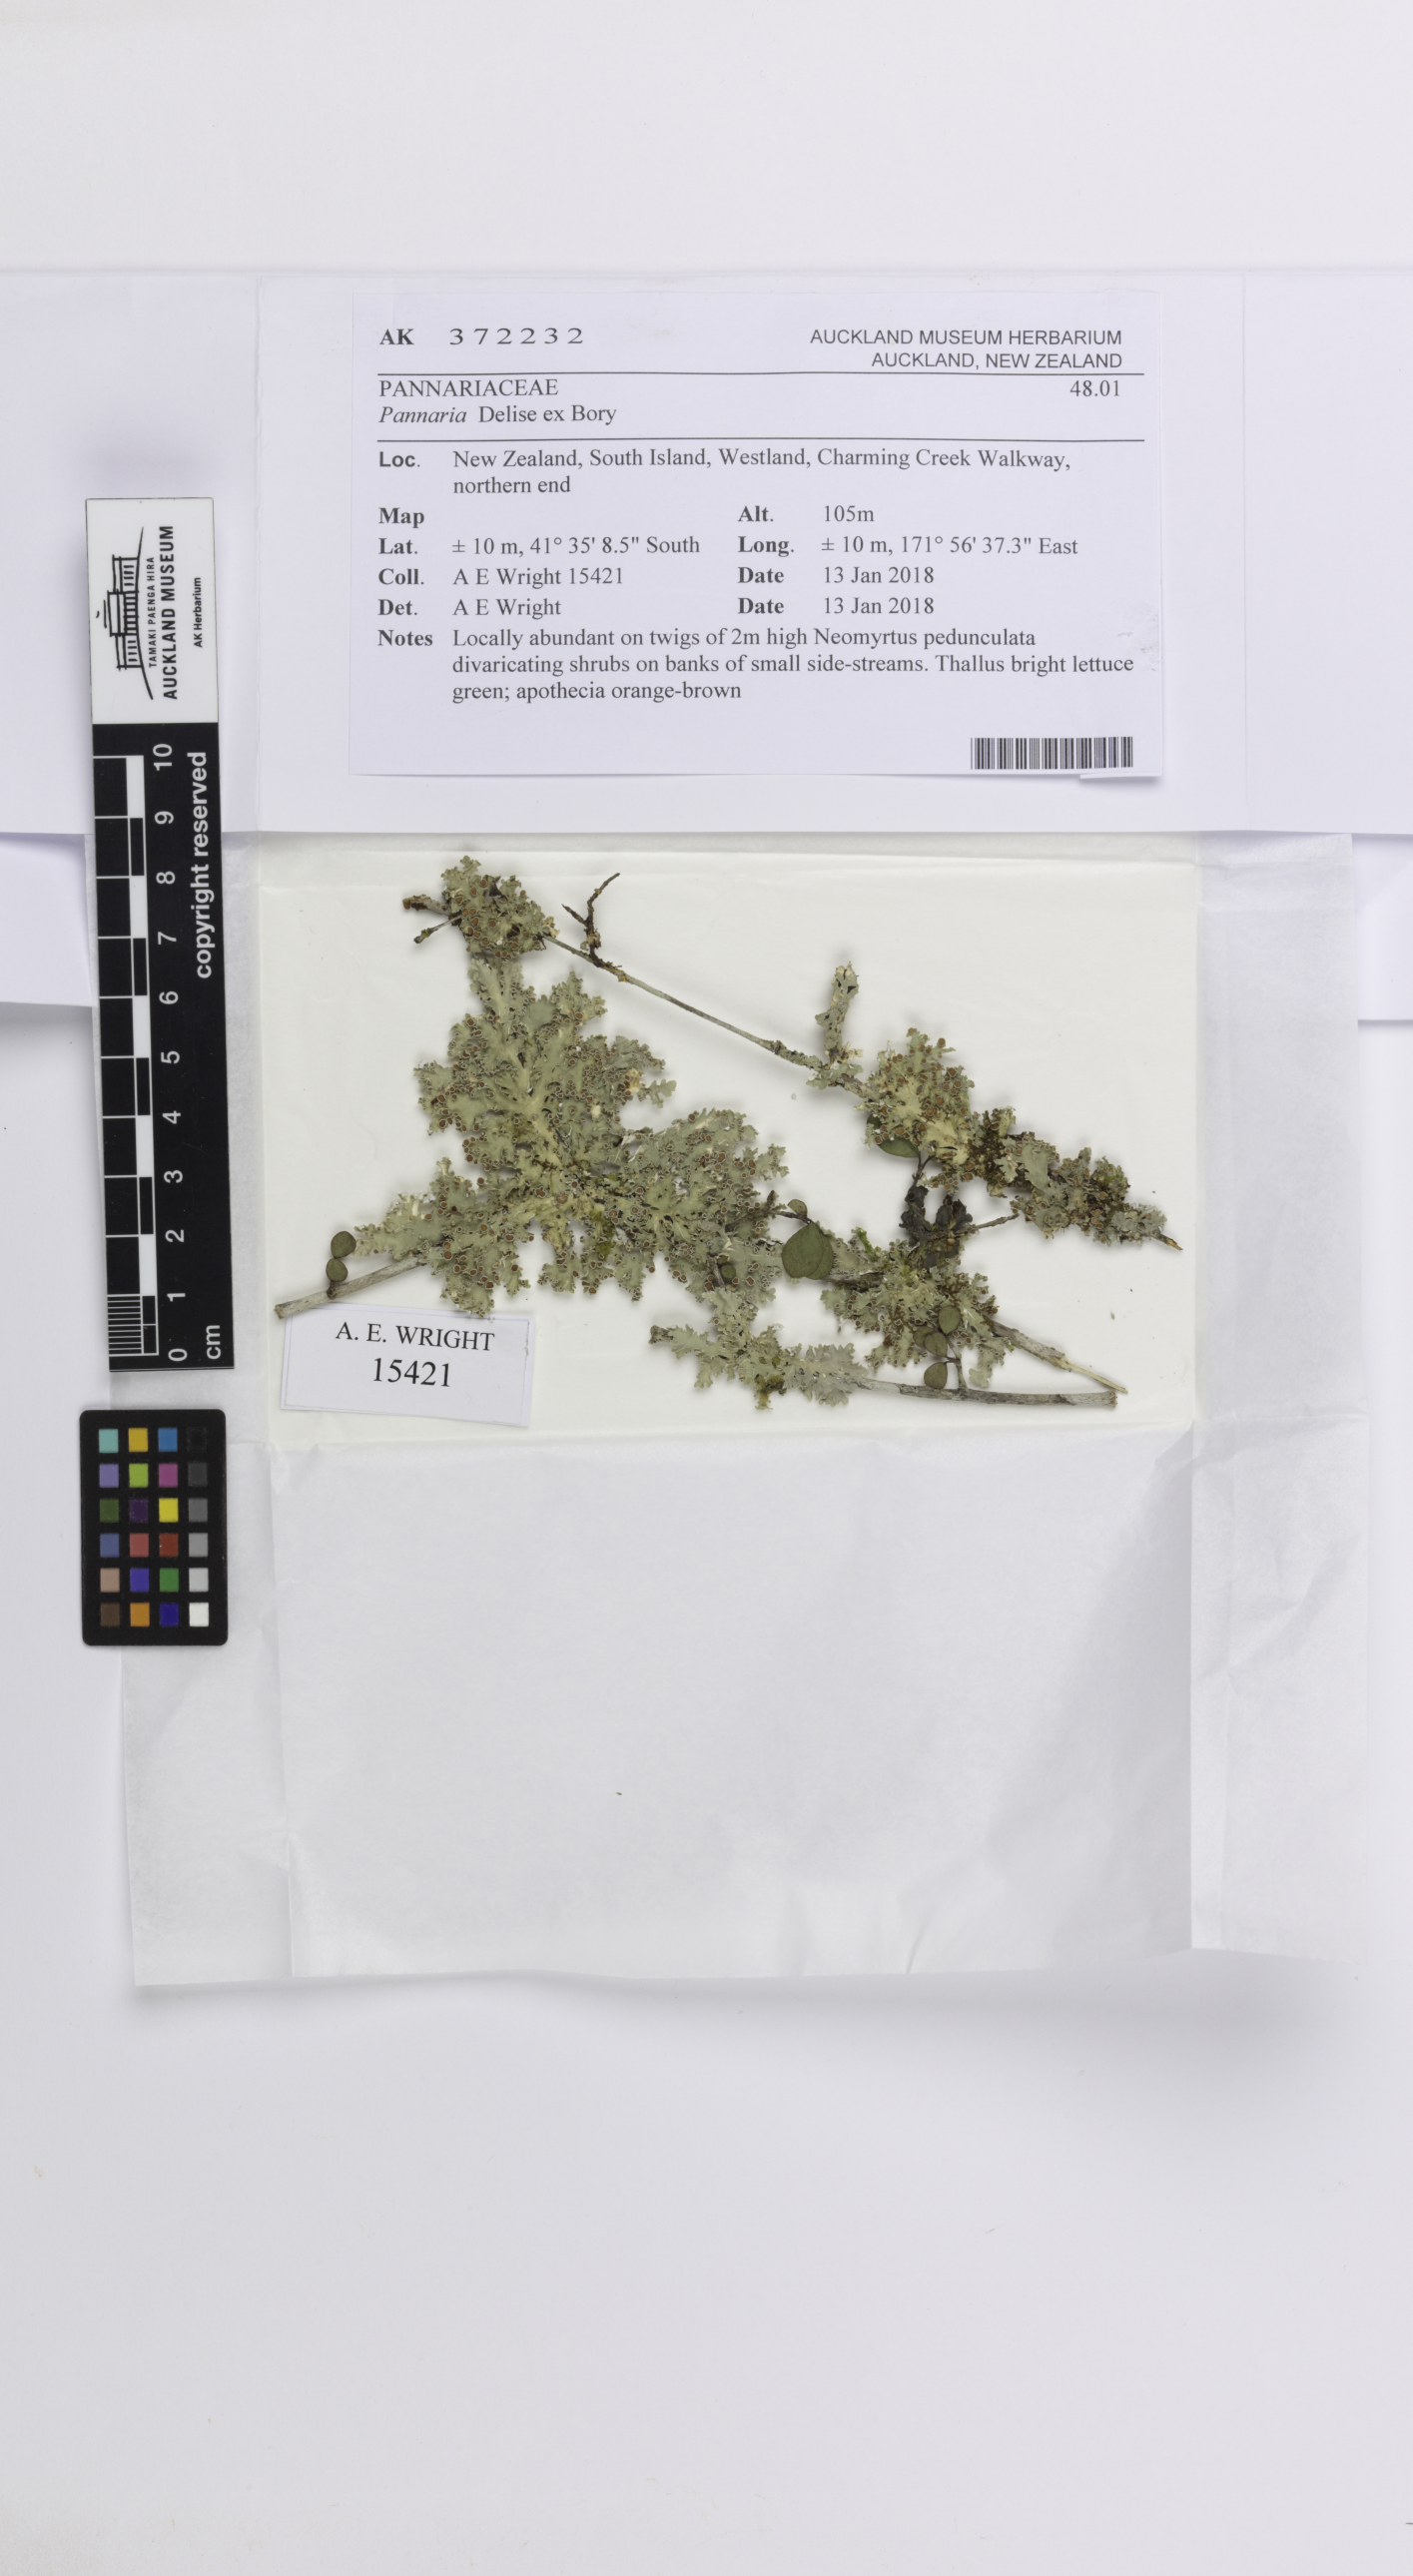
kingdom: Fungi
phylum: Ascomycota
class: Lecanoromycetes
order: Peltigerales
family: Pannariaceae
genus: Pannaria
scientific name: Pannaria
